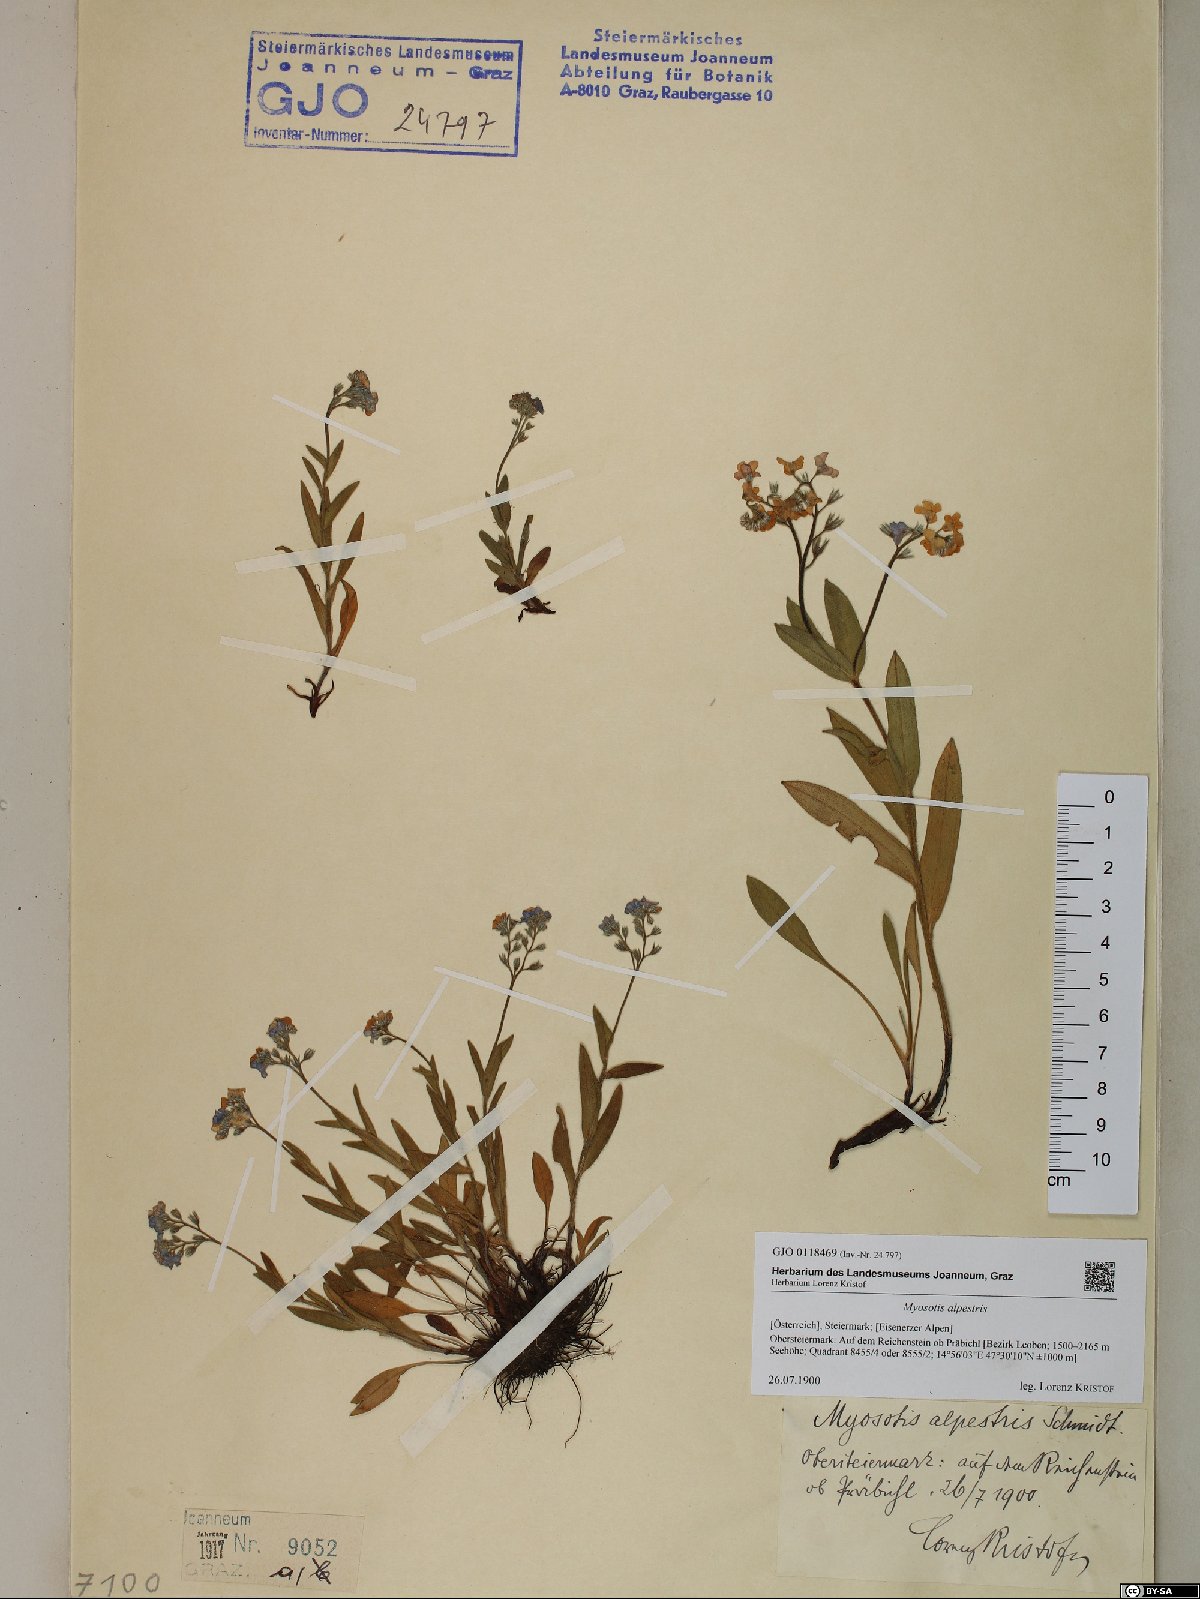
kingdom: Plantae
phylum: Tracheophyta
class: Magnoliopsida
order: Boraginales
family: Boraginaceae
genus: Myosotis
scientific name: Myosotis alpestris
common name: Alpine forget-me-not
